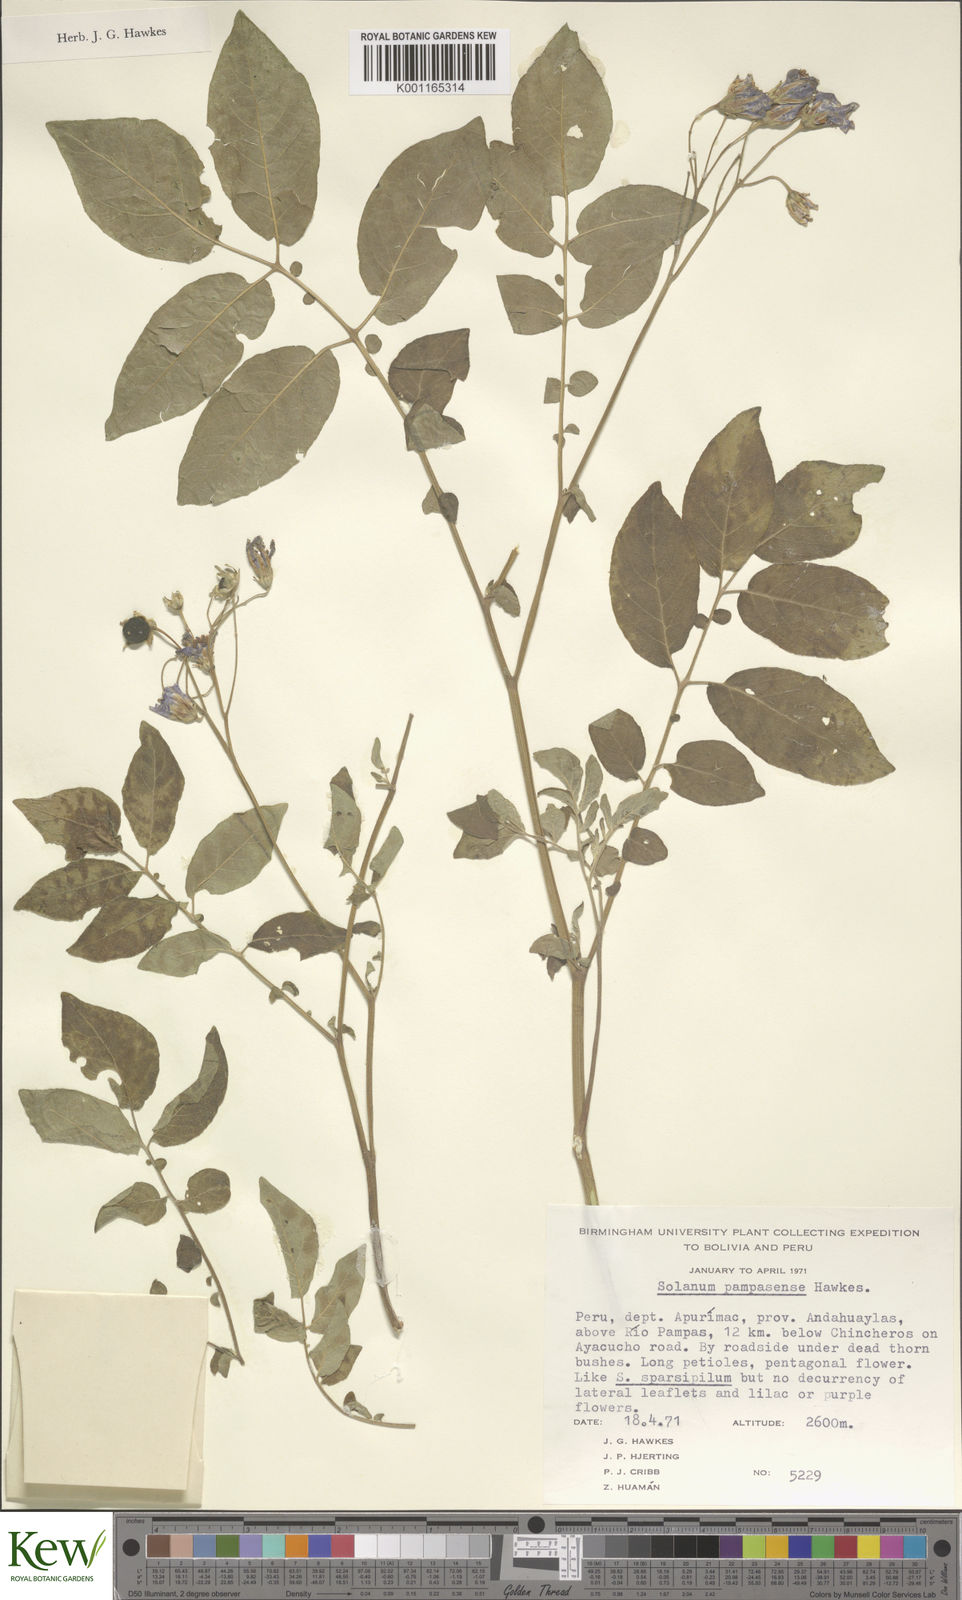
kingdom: Plantae
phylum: Tracheophyta
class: Magnoliopsida
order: Solanales
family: Solanaceae
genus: Solanum
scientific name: Solanum candolleanum
